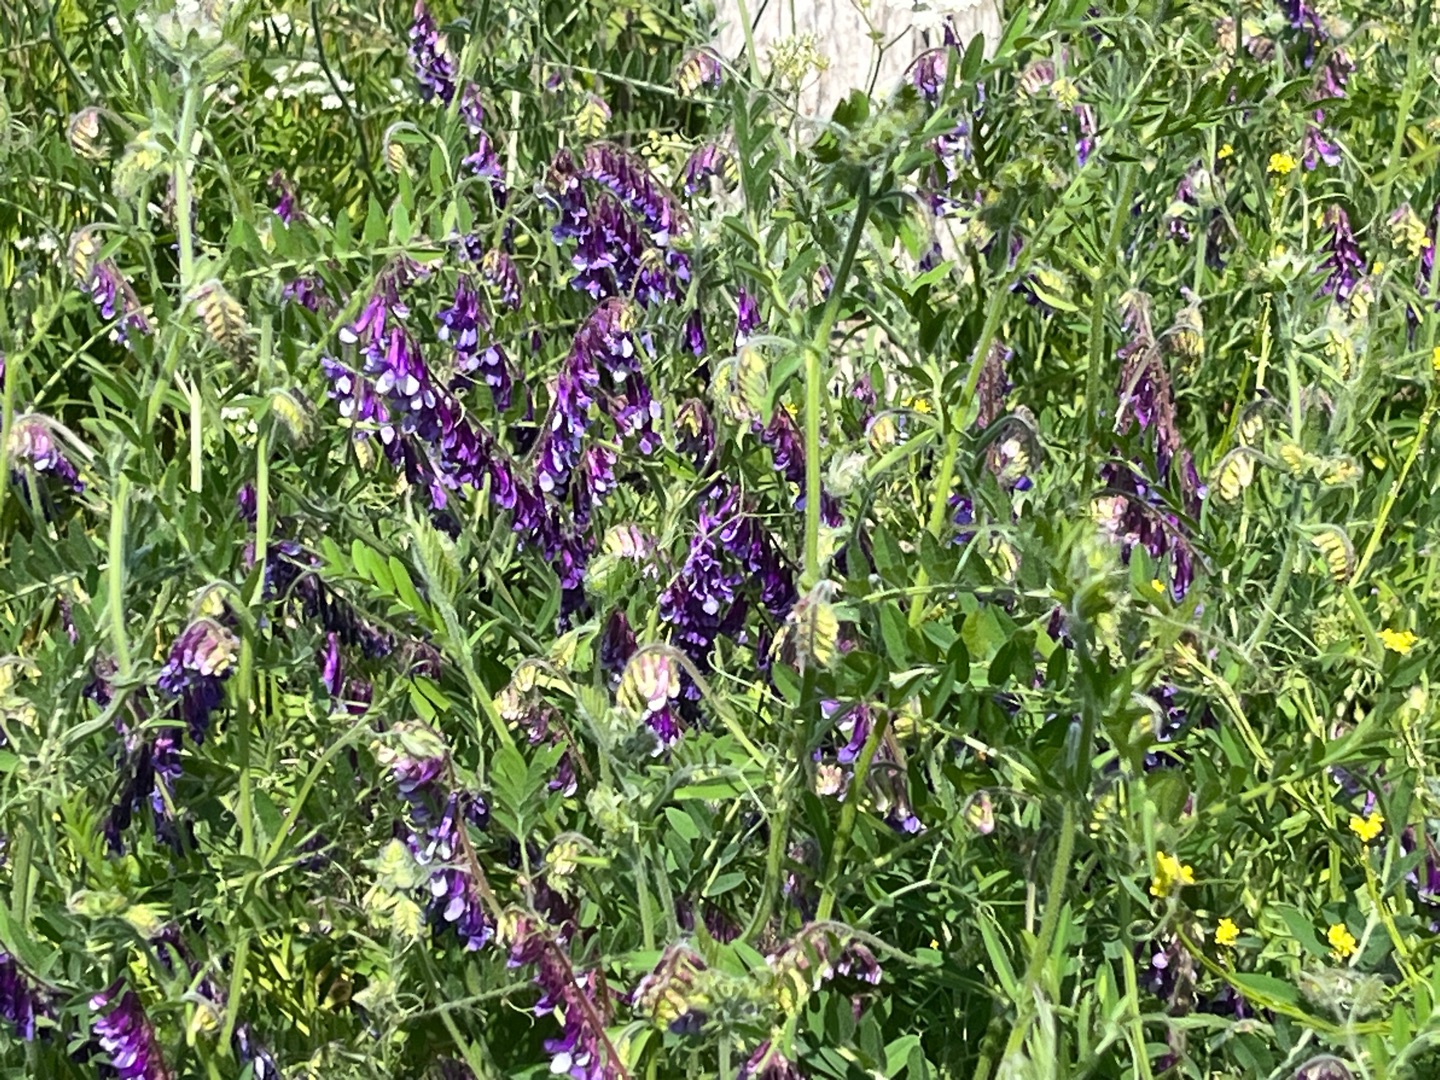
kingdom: Plantae
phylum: Tracheophyta
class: Magnoliopsida
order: Fabales
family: Fabaceae
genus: Vicia
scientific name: Vicia villosa
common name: Sand-vikke (underart)
